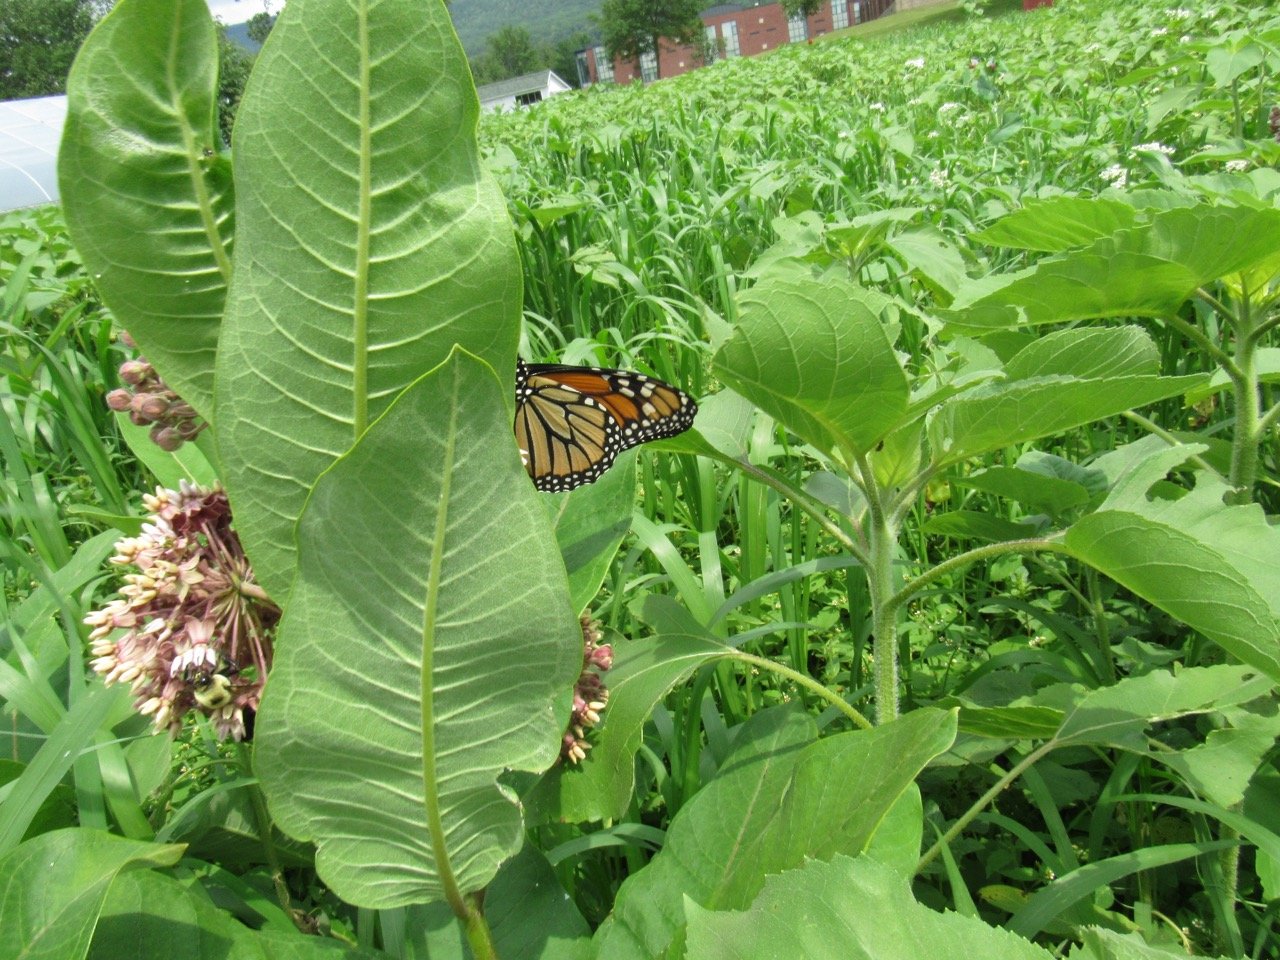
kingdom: Animalia
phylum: Arthropoda
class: Insecta
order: Lepidoptera
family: Nymphalidae
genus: Danaus
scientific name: Danaus plexippus
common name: Monarch
